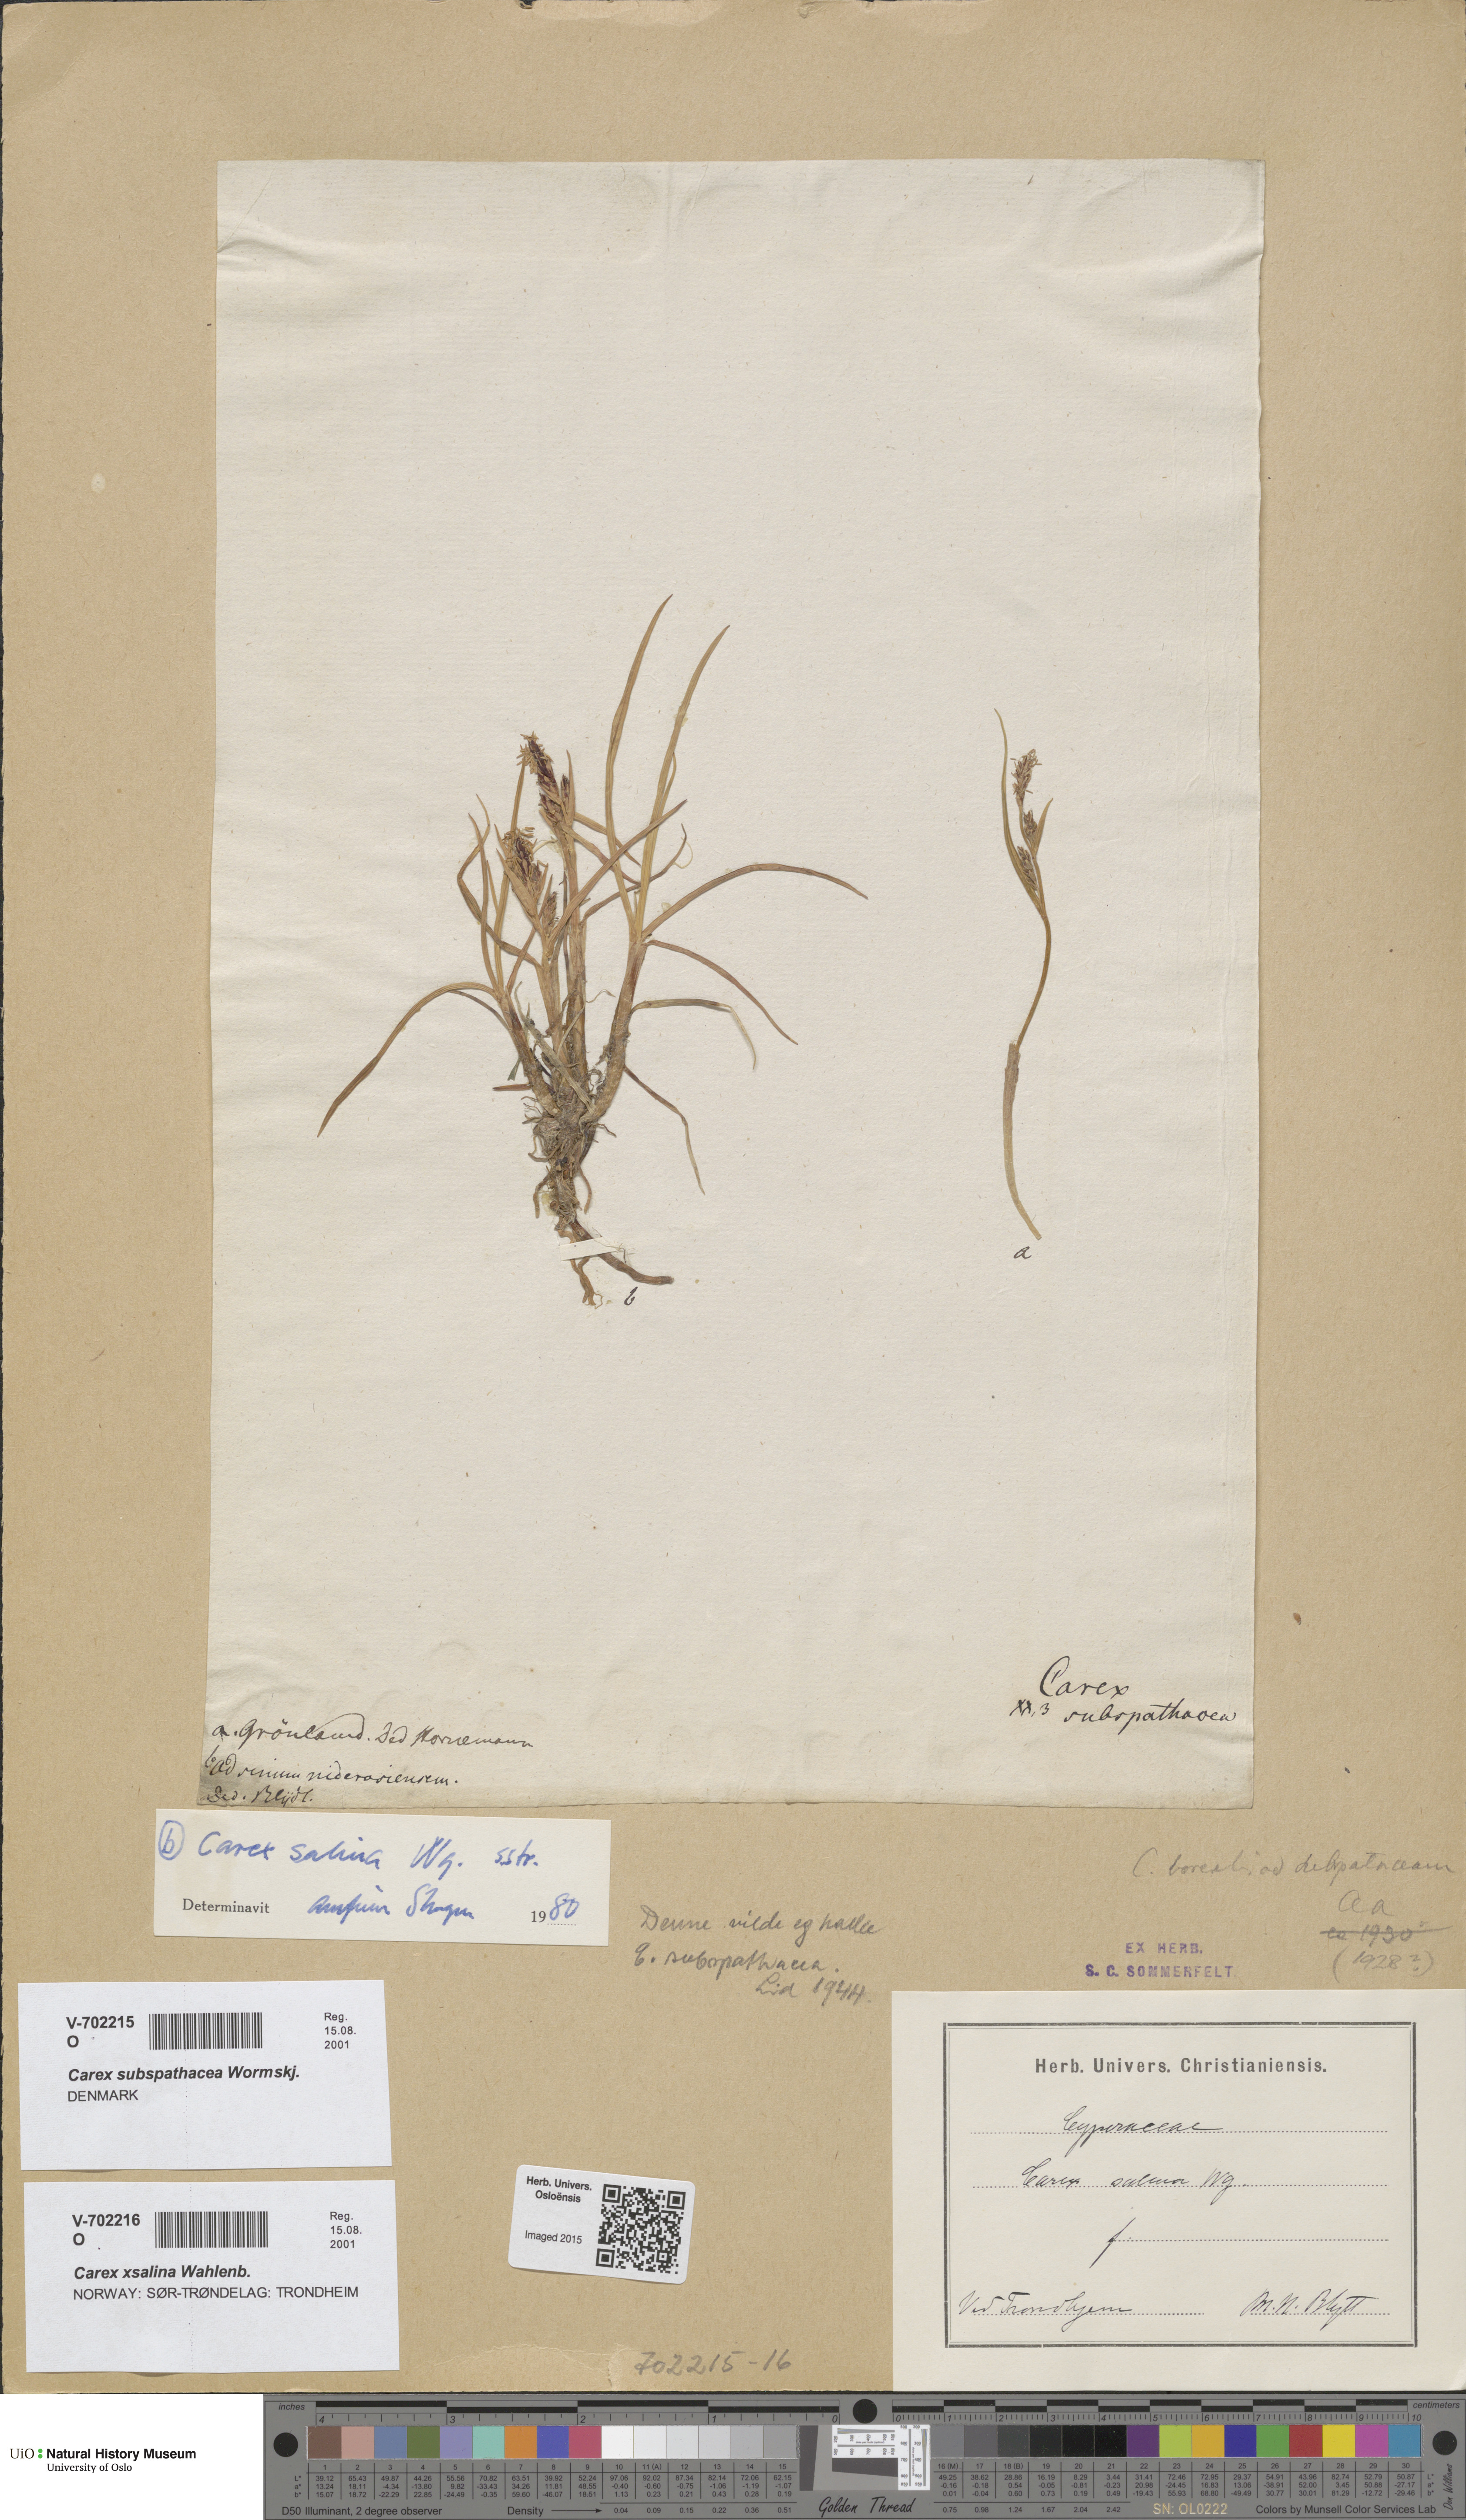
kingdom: Plantae
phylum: Tracheophyta
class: Liliopsida
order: Poales
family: Cyperaceae
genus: Carex
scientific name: Carex subspathacea
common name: Hoppner's sedge
